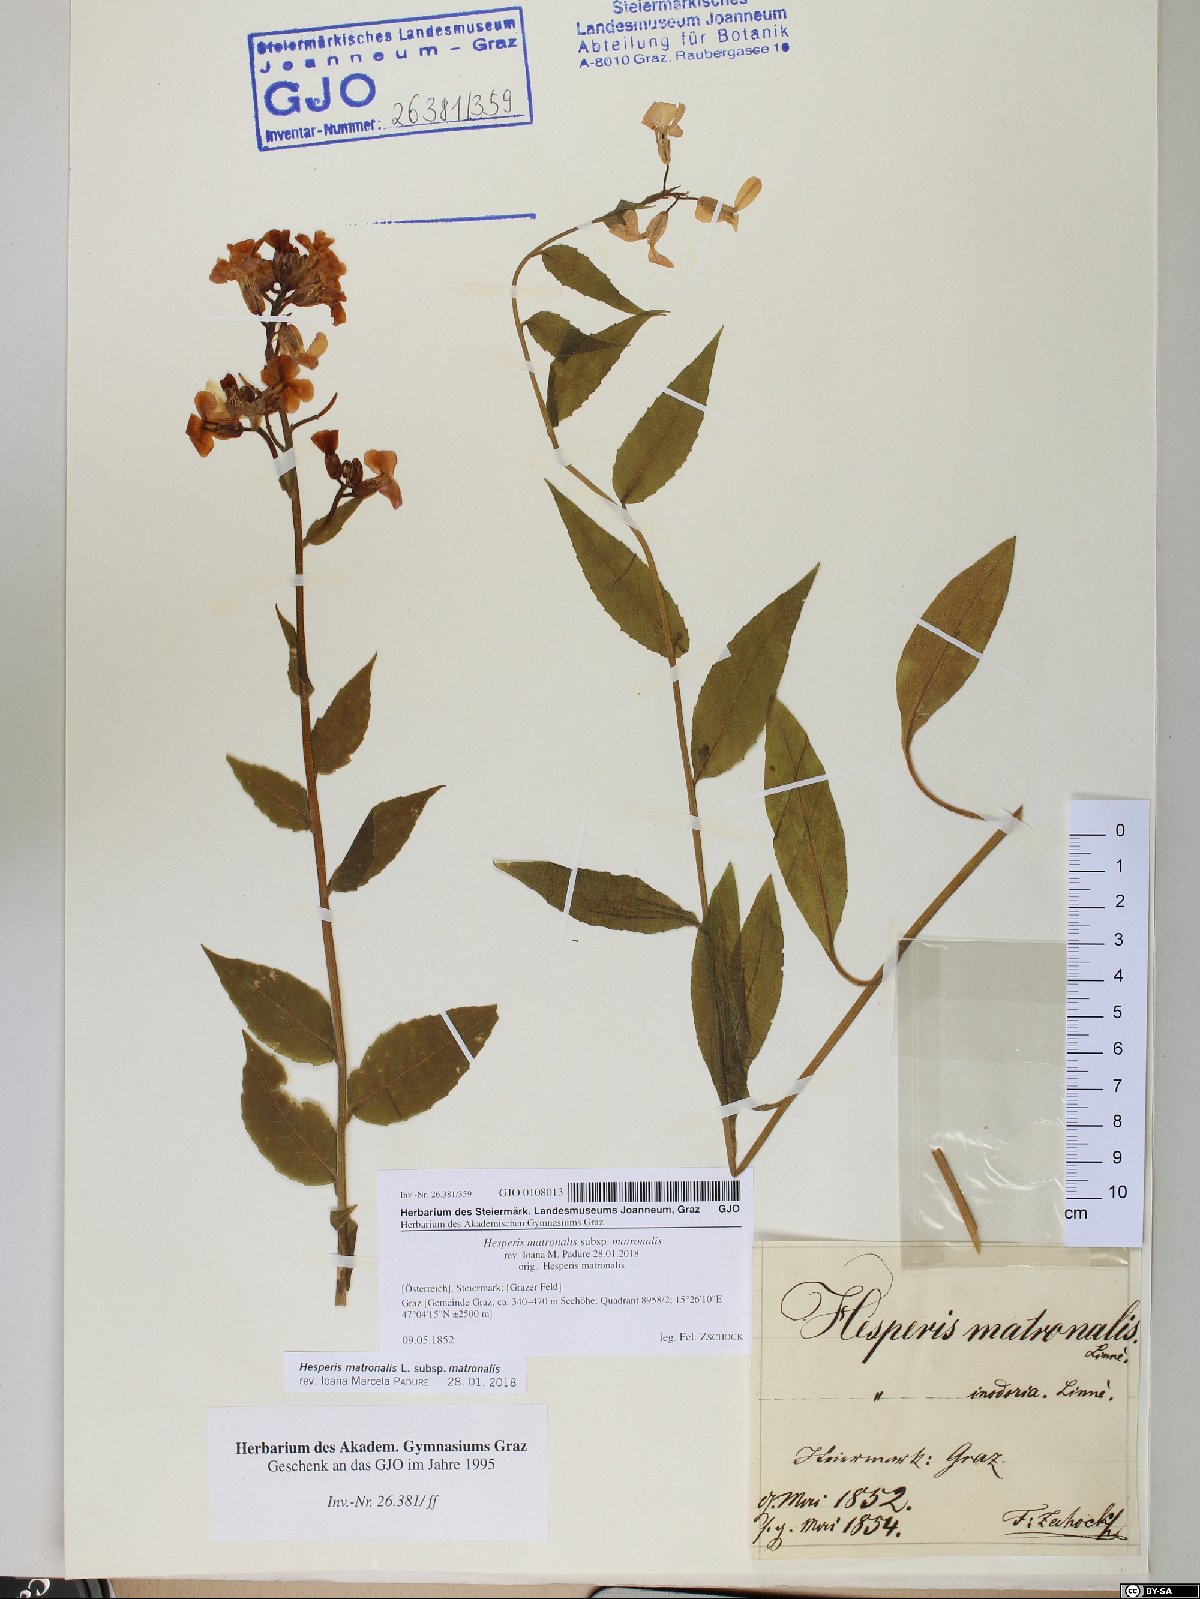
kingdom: Plantae
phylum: Tracheophyta
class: Magnoliopsida
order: Brassicales
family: Brassicaceae
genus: Hesperis
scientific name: Hesperis matronalis
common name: Dame's-violet
